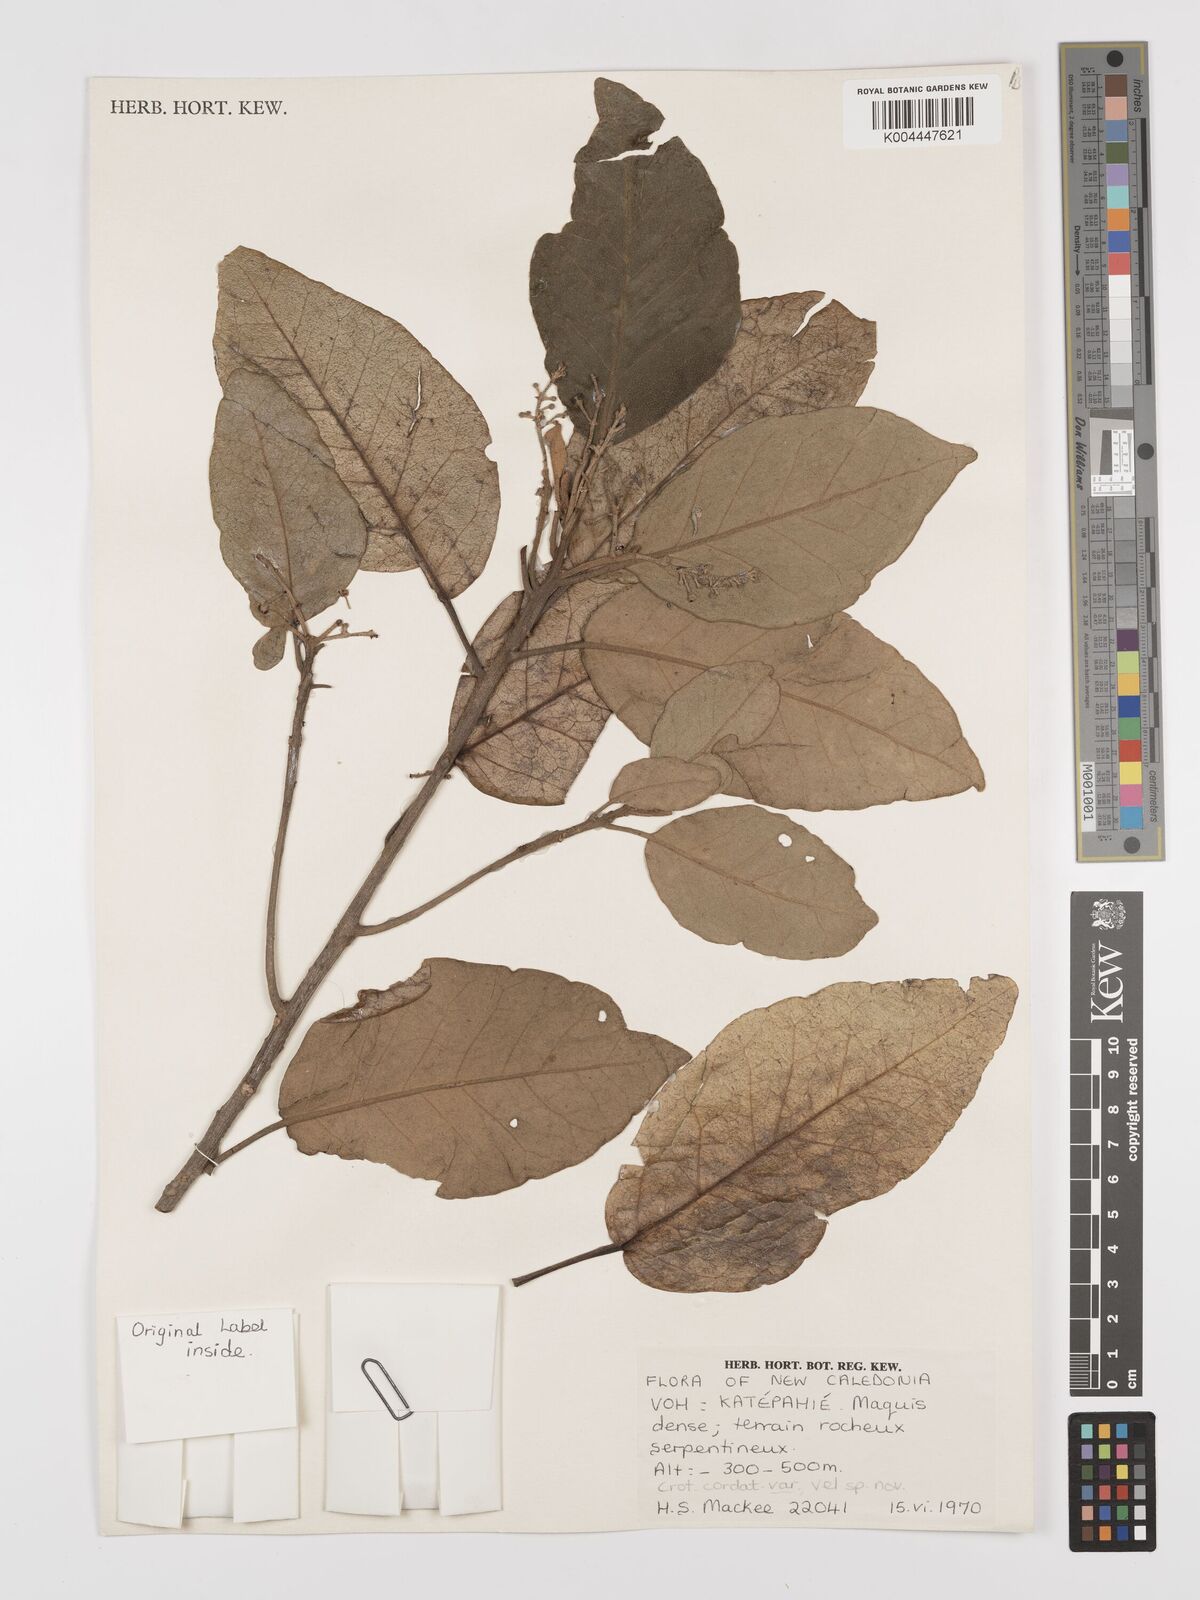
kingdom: Plantae
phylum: Tracheophyta
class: Magnoliopsida
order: Malpighiales
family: Euphorbiaceae
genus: Croton
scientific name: Croton cordatulus
